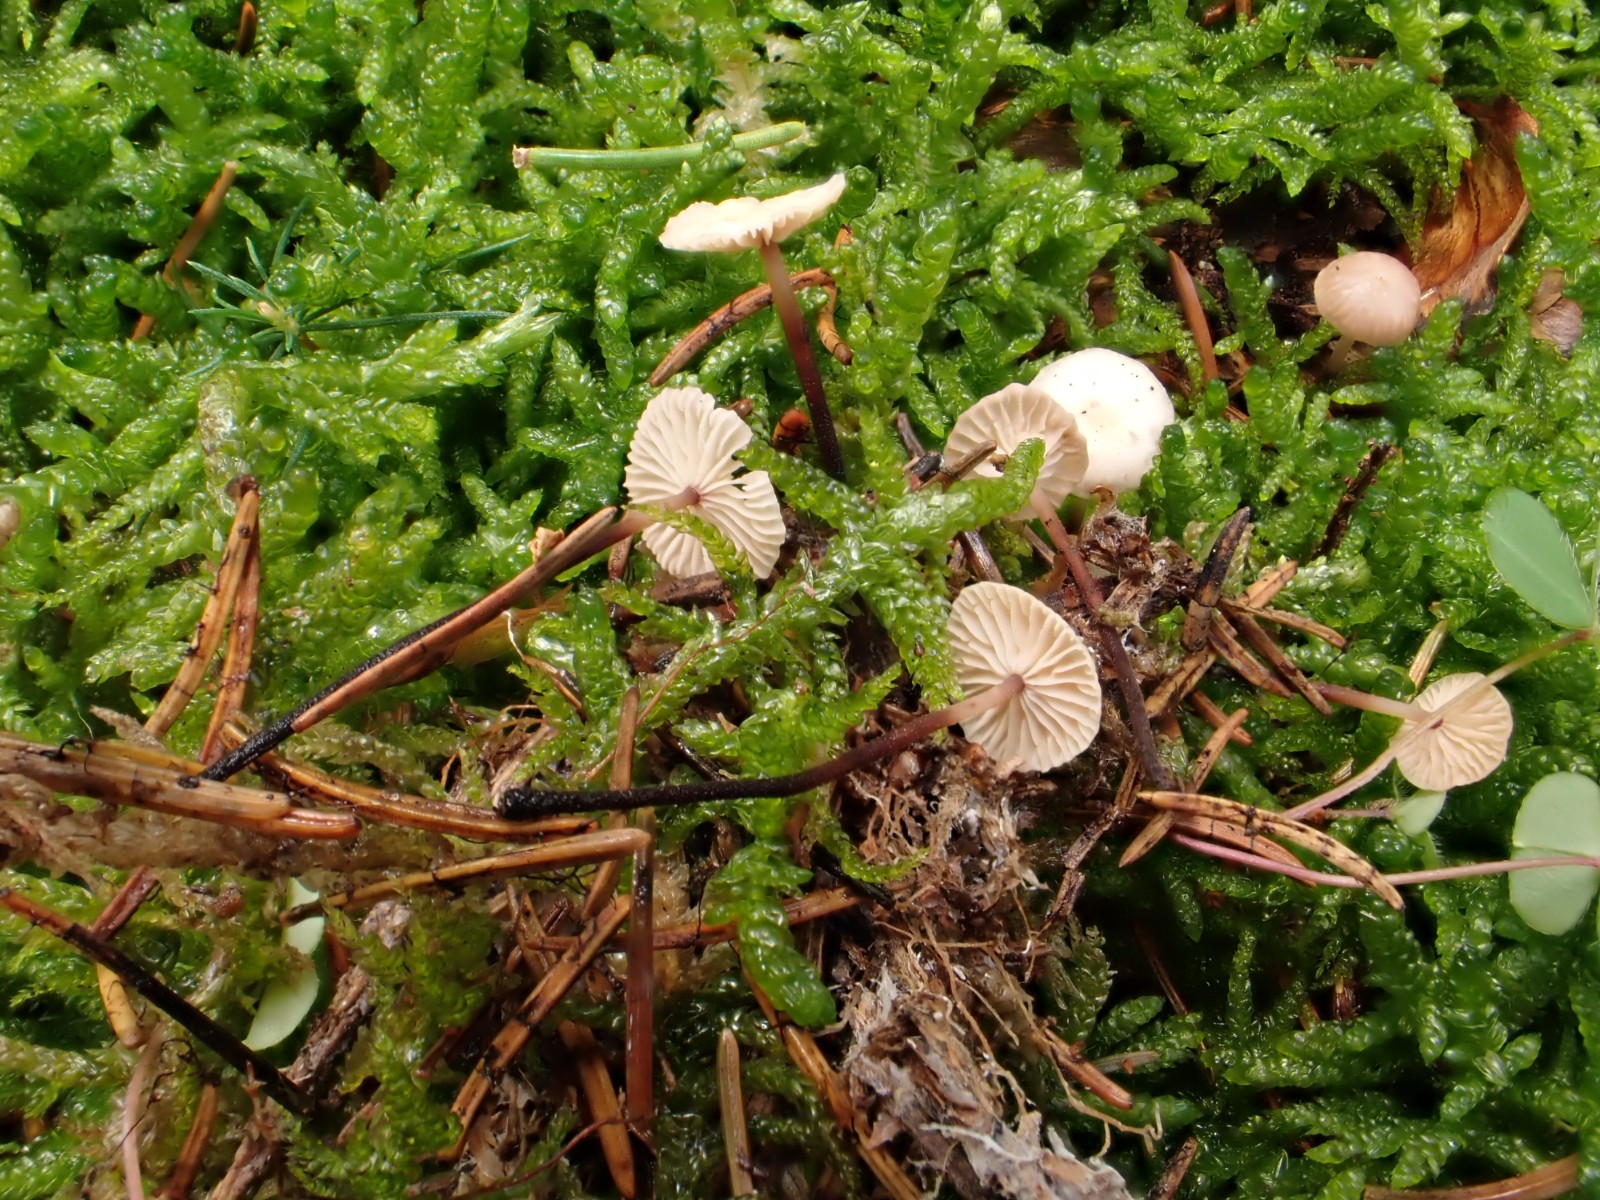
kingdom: Fungi
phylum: Basidiomycota
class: Agaricomycetes
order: Agaricales
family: Omphalotaceae
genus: Paragymnopus
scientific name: Paragymnopus perforans
